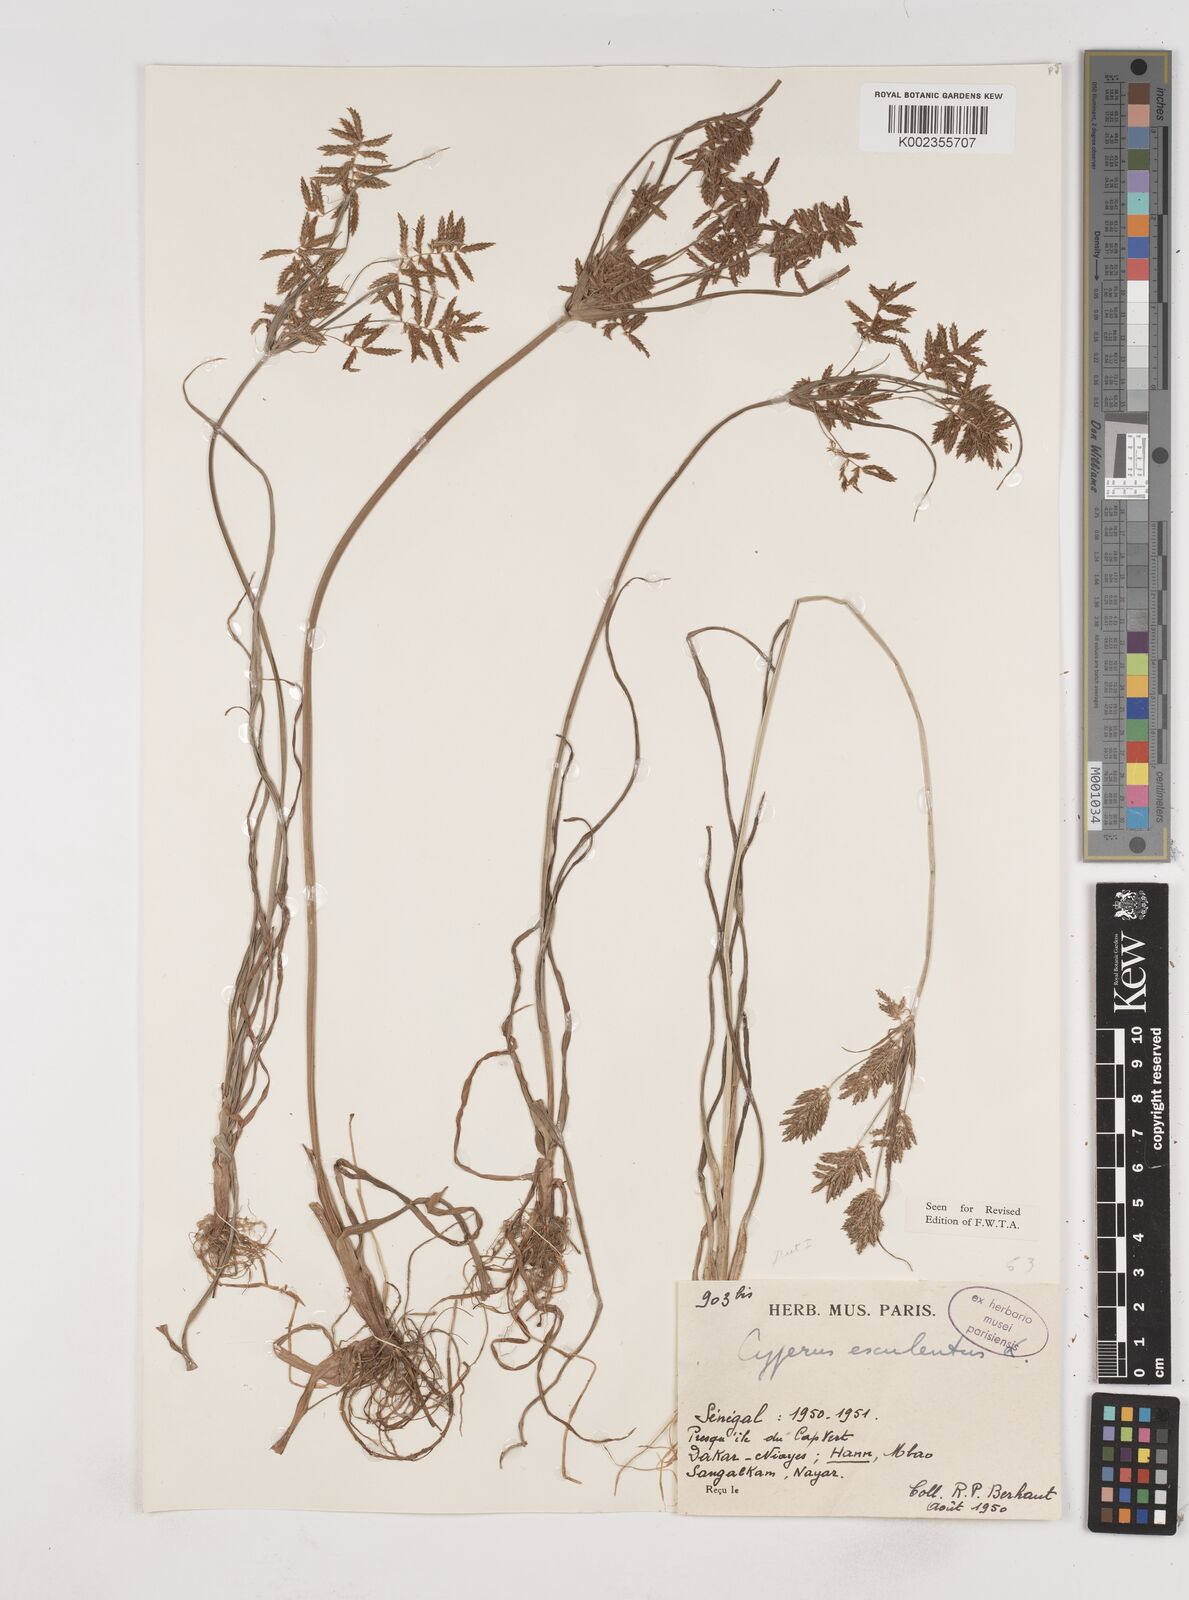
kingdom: Plantae
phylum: Tracheophyta
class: Liliopsida
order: Poales
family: Cyperaceae
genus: Cyperus
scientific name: Cyperus esculentus
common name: Yellow nutsedge
